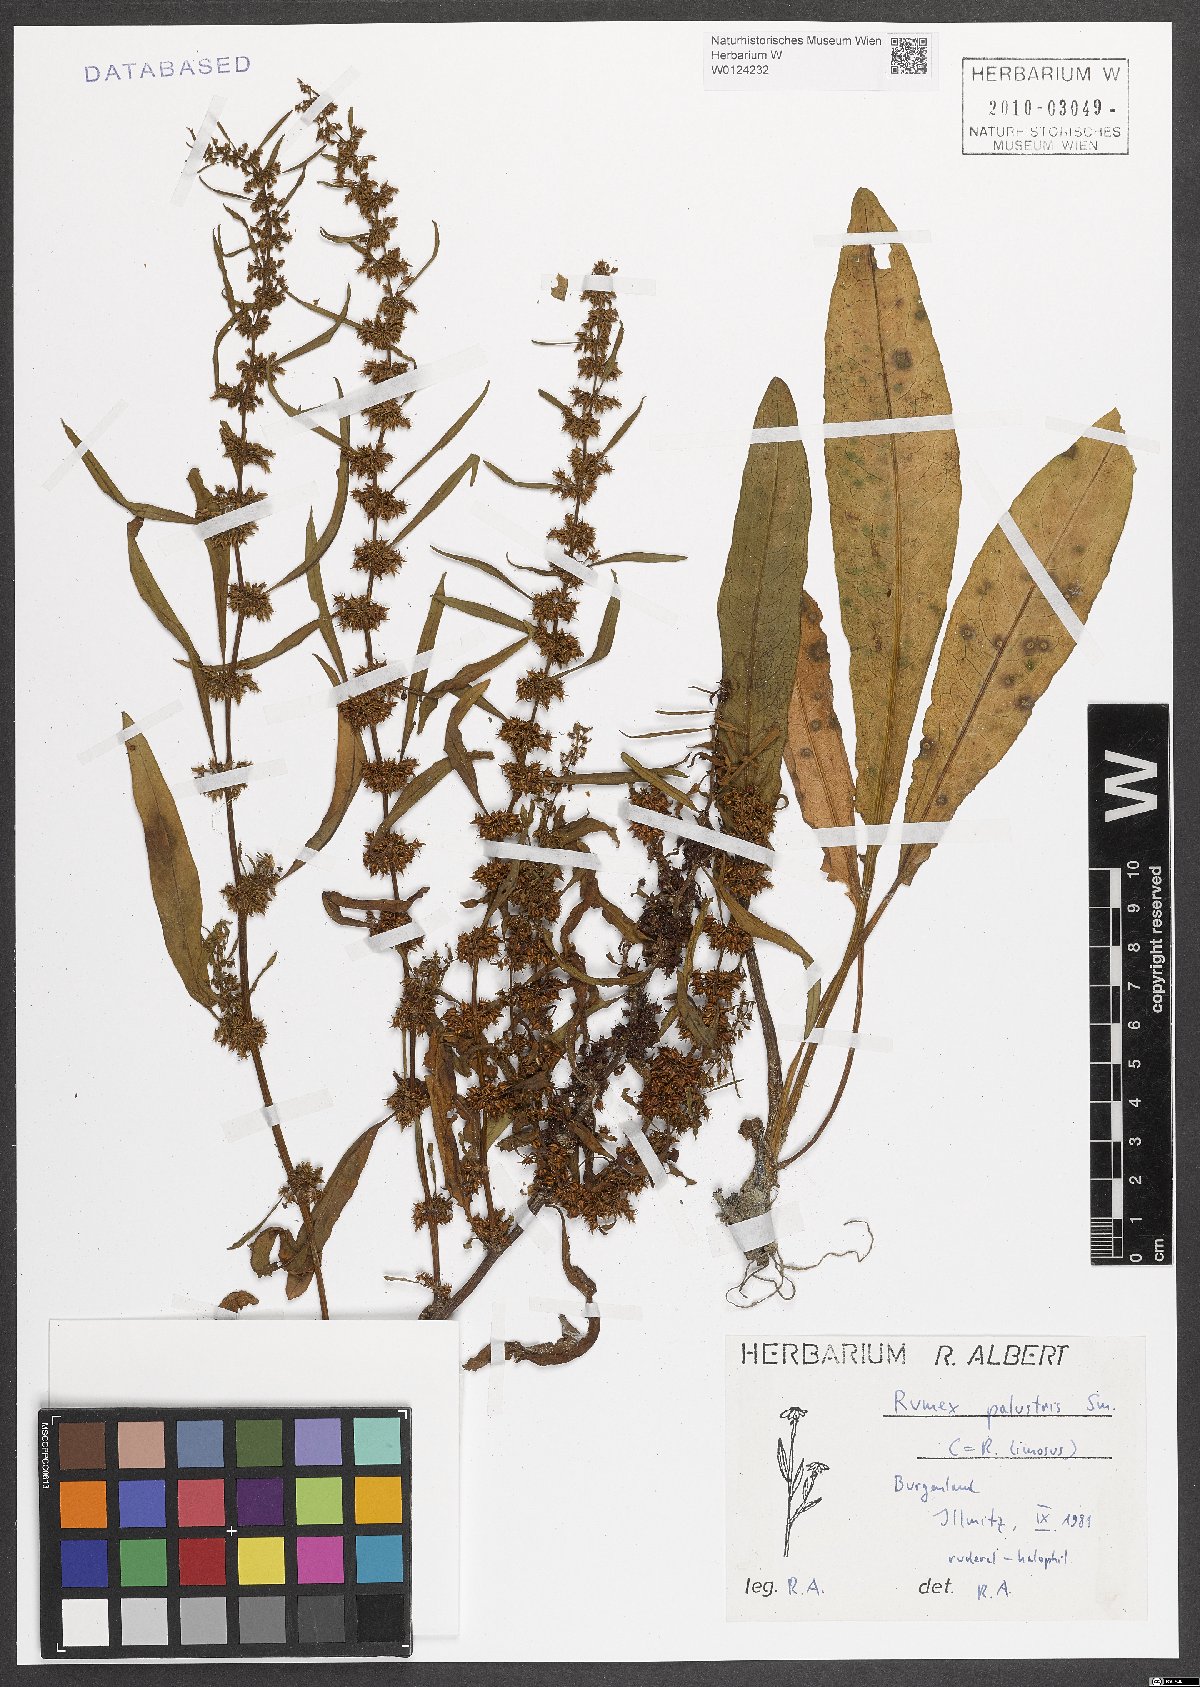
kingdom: Plantae
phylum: Tracheophyta
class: Magnoliopsida
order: Caryophyllales
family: Polygonaceae
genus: Rumex
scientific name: Rumex palustris
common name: Marsh dock
